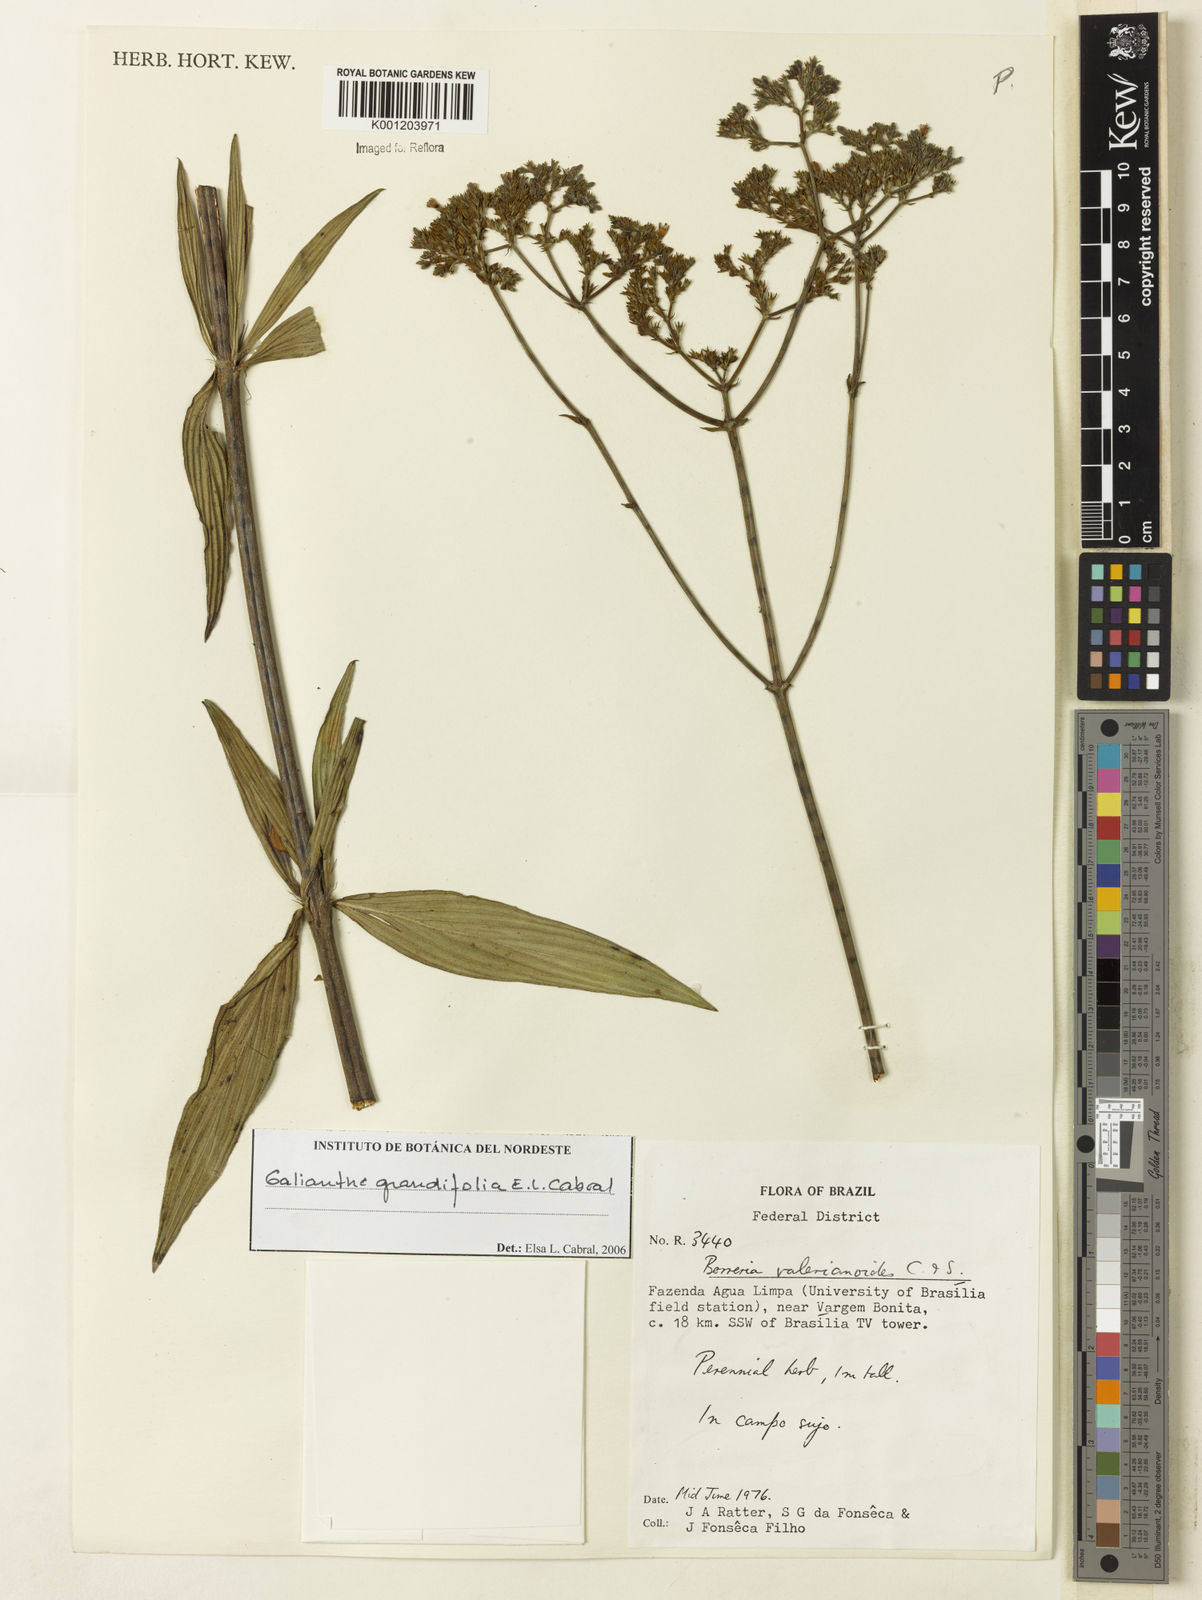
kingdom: Plantae
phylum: Tracheophyta
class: Magnoliopsida
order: Gentianales
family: Rubiaceae
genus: Galianthe
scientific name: Galianthe grandifolia
